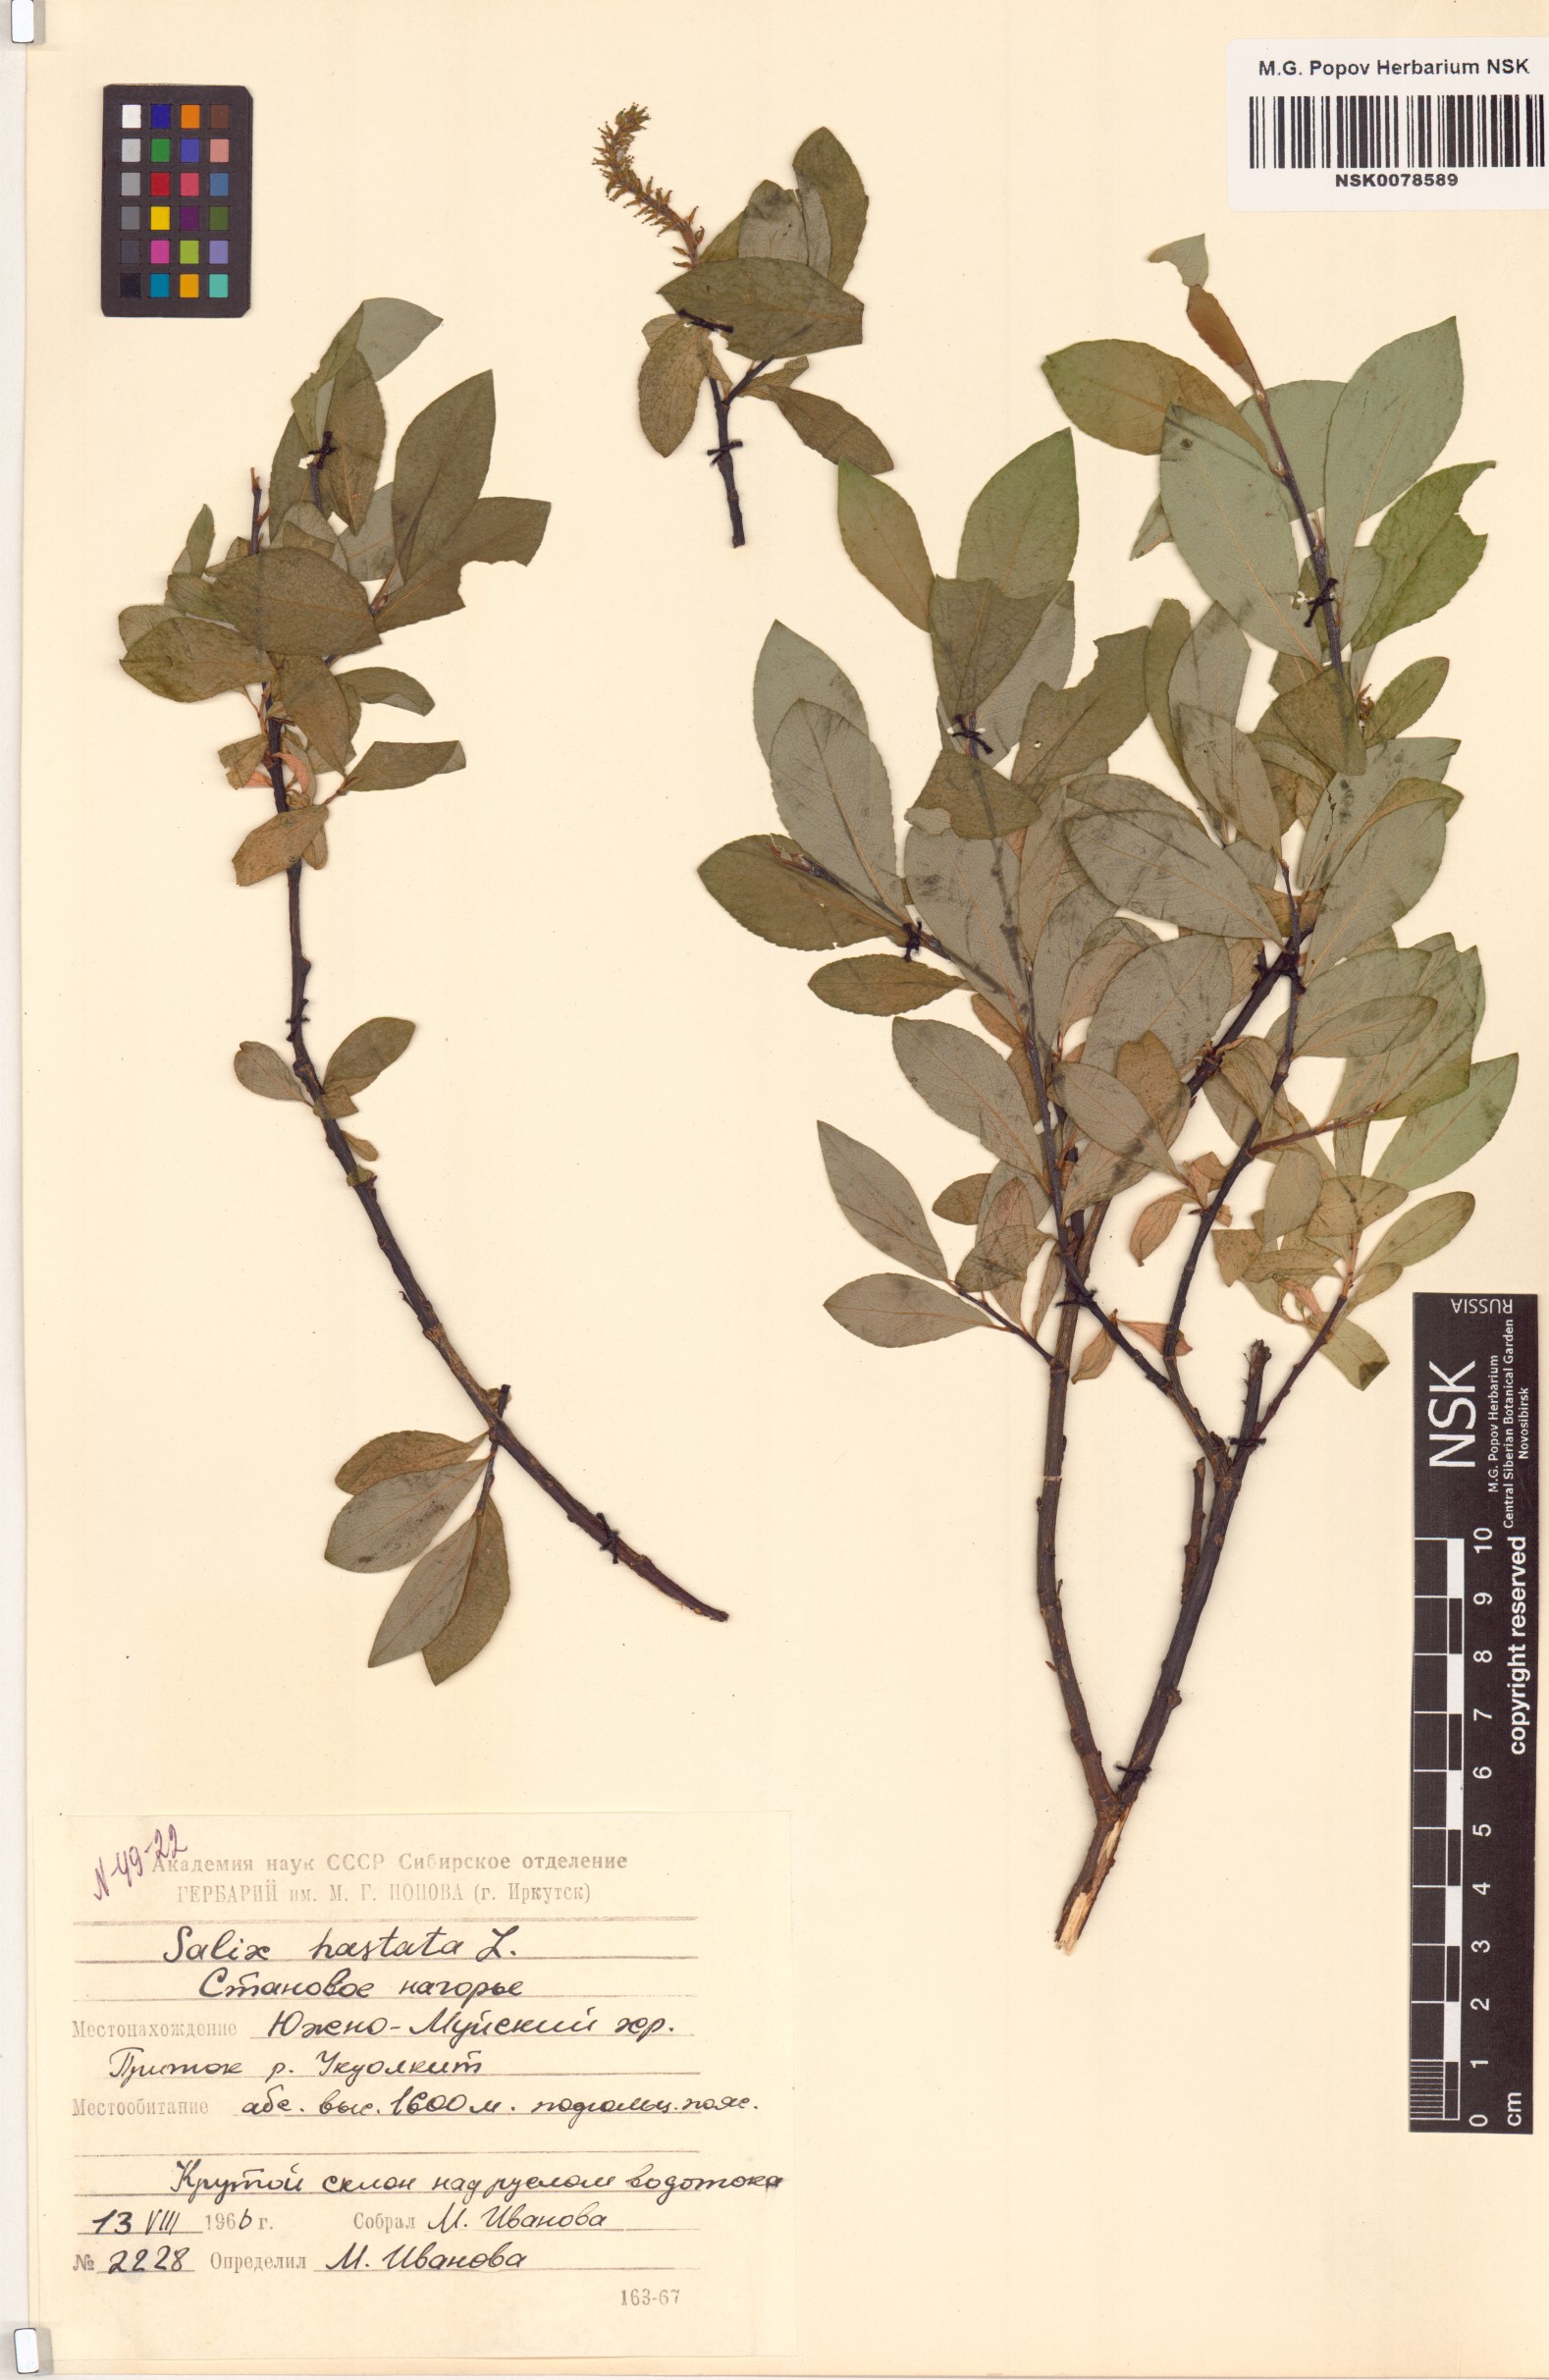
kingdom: Plantae
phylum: Tracheophyta
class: Magnoliopsida
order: Malpighiales
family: Salicaceae
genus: Salix
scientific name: Salix hastata
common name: Halberd willow
